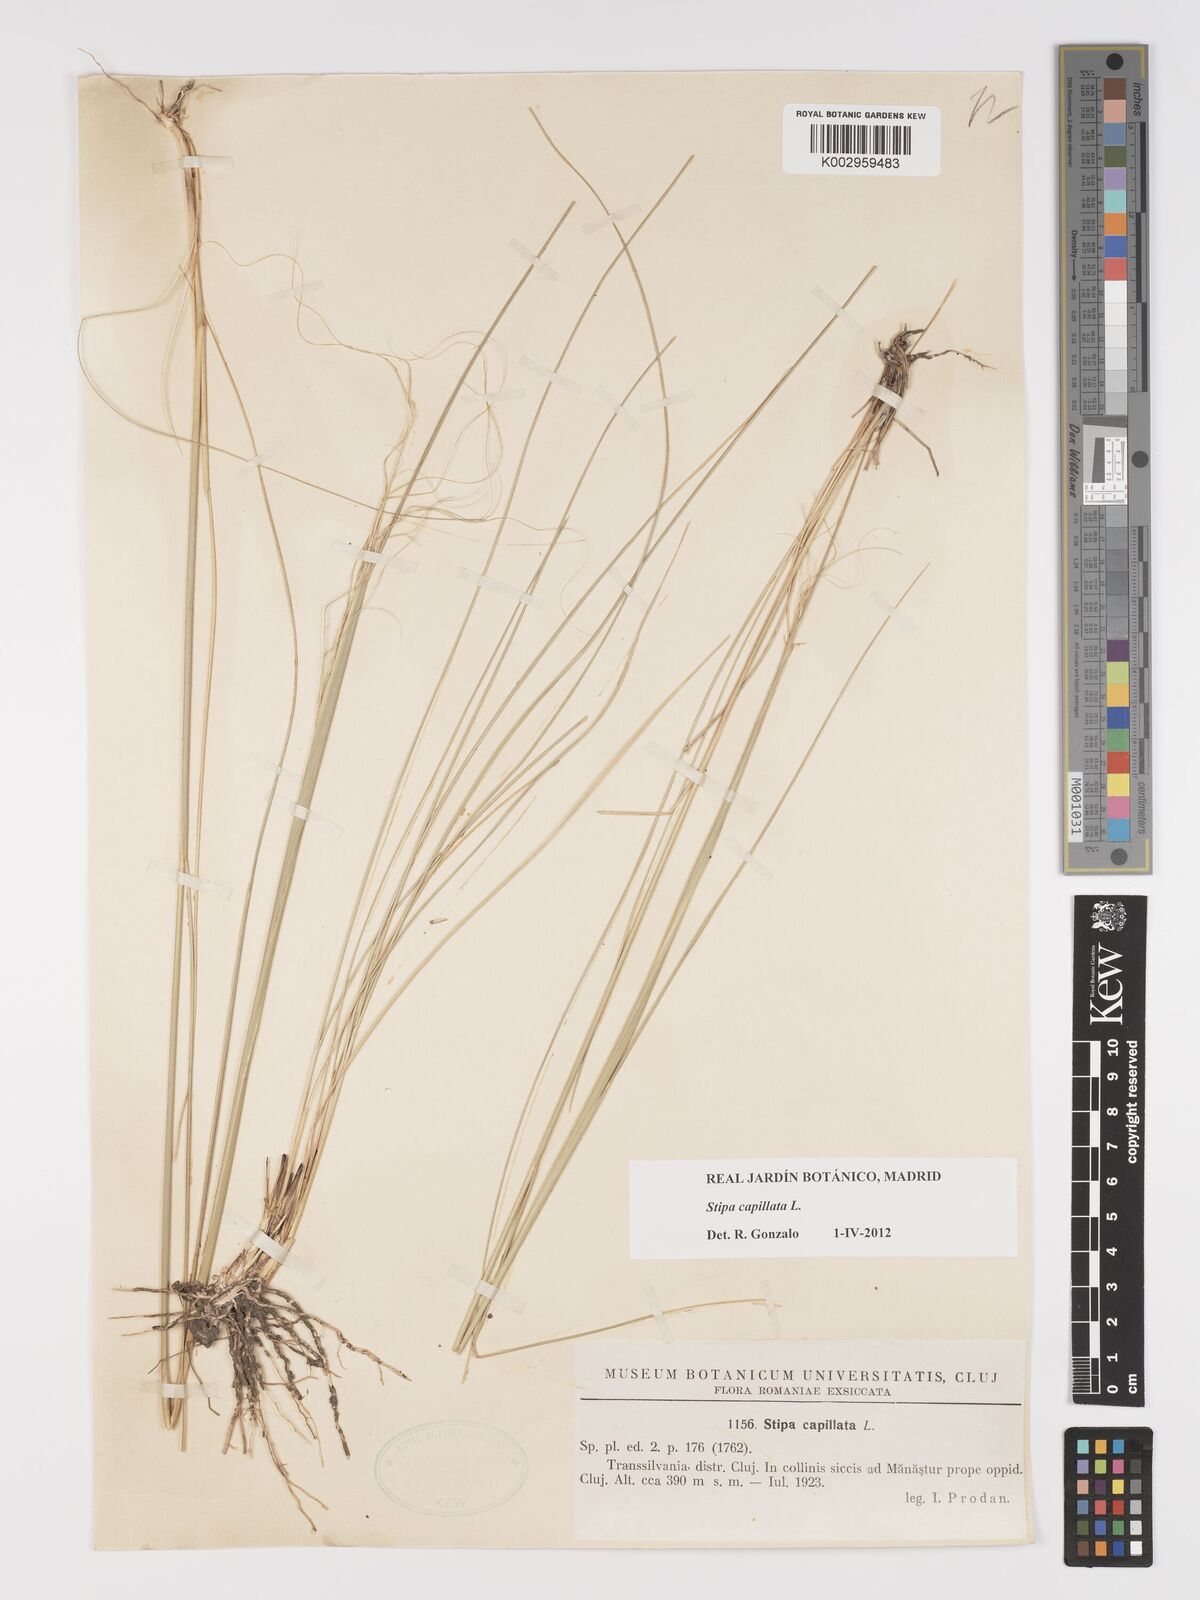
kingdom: Plantae
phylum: Tracheophyta
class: Liliopsida
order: Poales
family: Poaceae
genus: Stipa
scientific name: Stipa capillata
